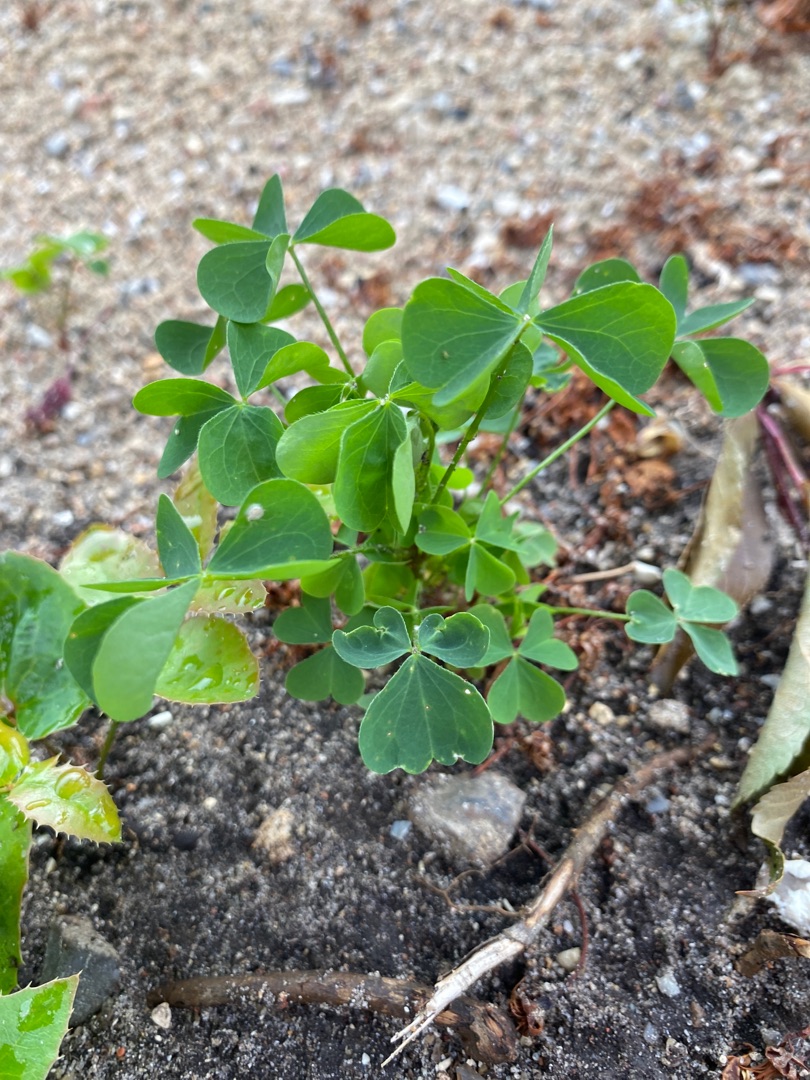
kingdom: Plantae
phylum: Tracheophyta
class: Magnoliopsida
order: Oxalidales
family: Oxalidaceae
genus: Oxalis
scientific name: Oxalis stricta
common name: Rank surkløver
